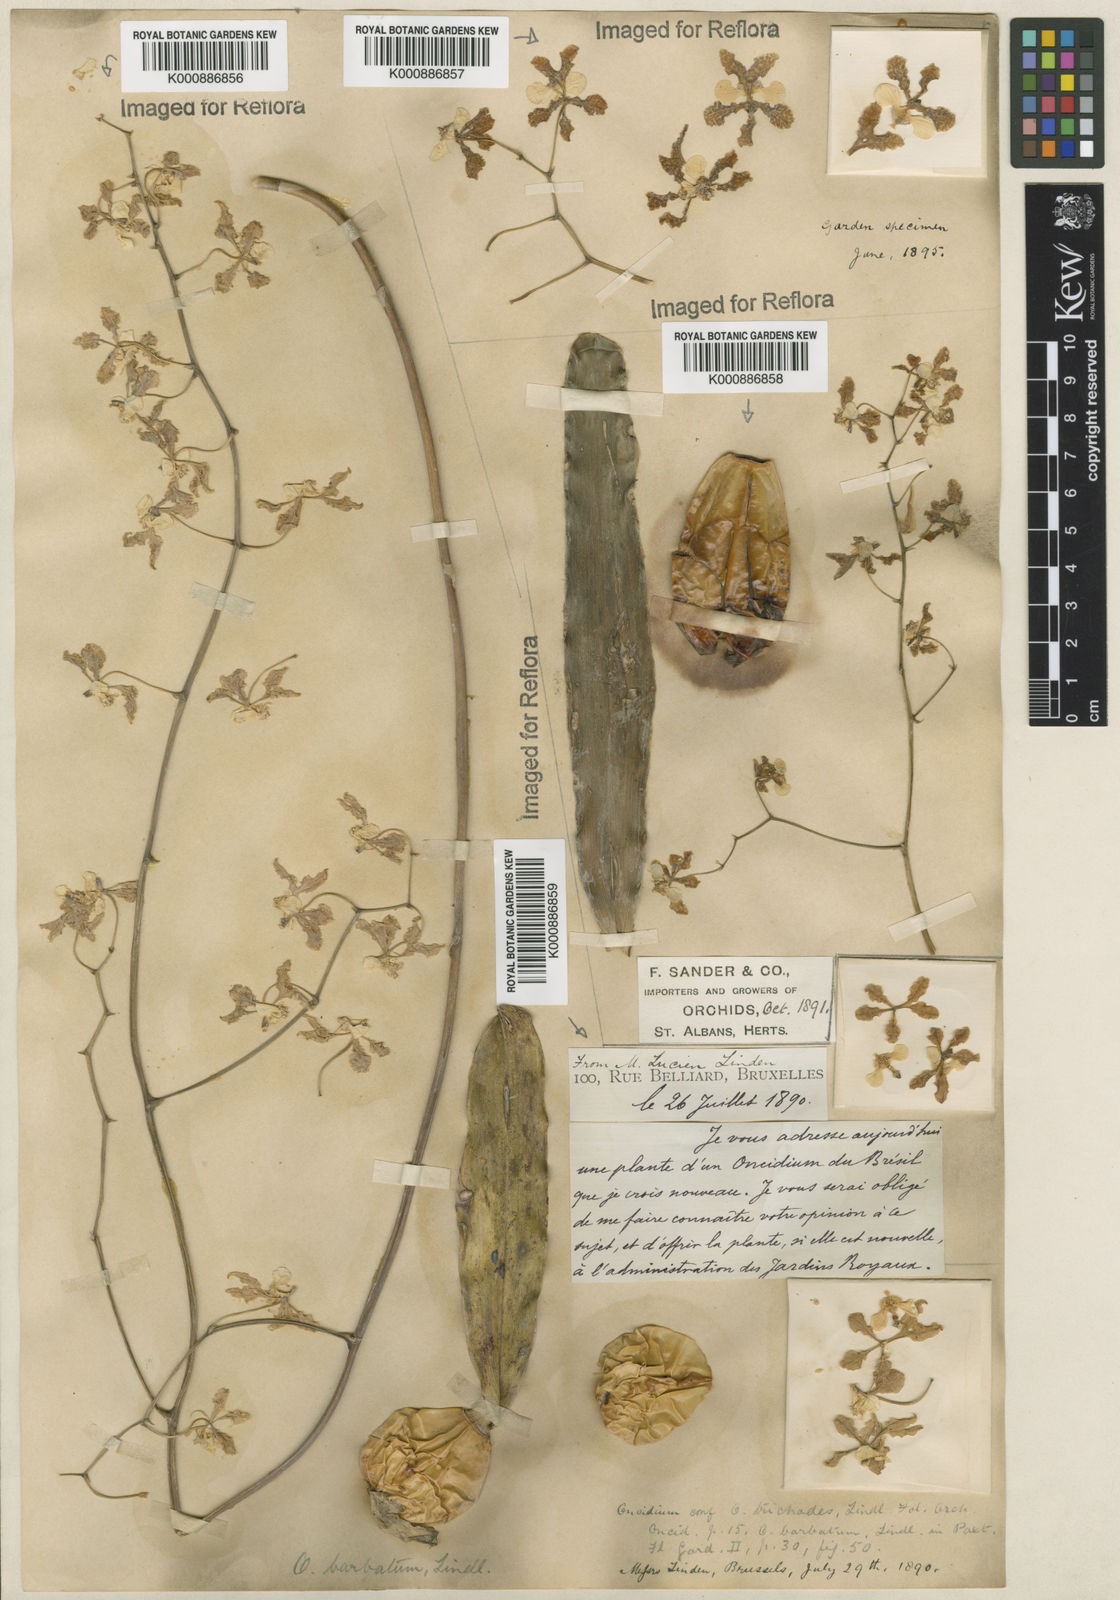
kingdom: Plantae
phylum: Tracheophyta
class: Liliopsida
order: Asparagales
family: Orchidaceae
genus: Gomesa
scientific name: Gomesa barbata
